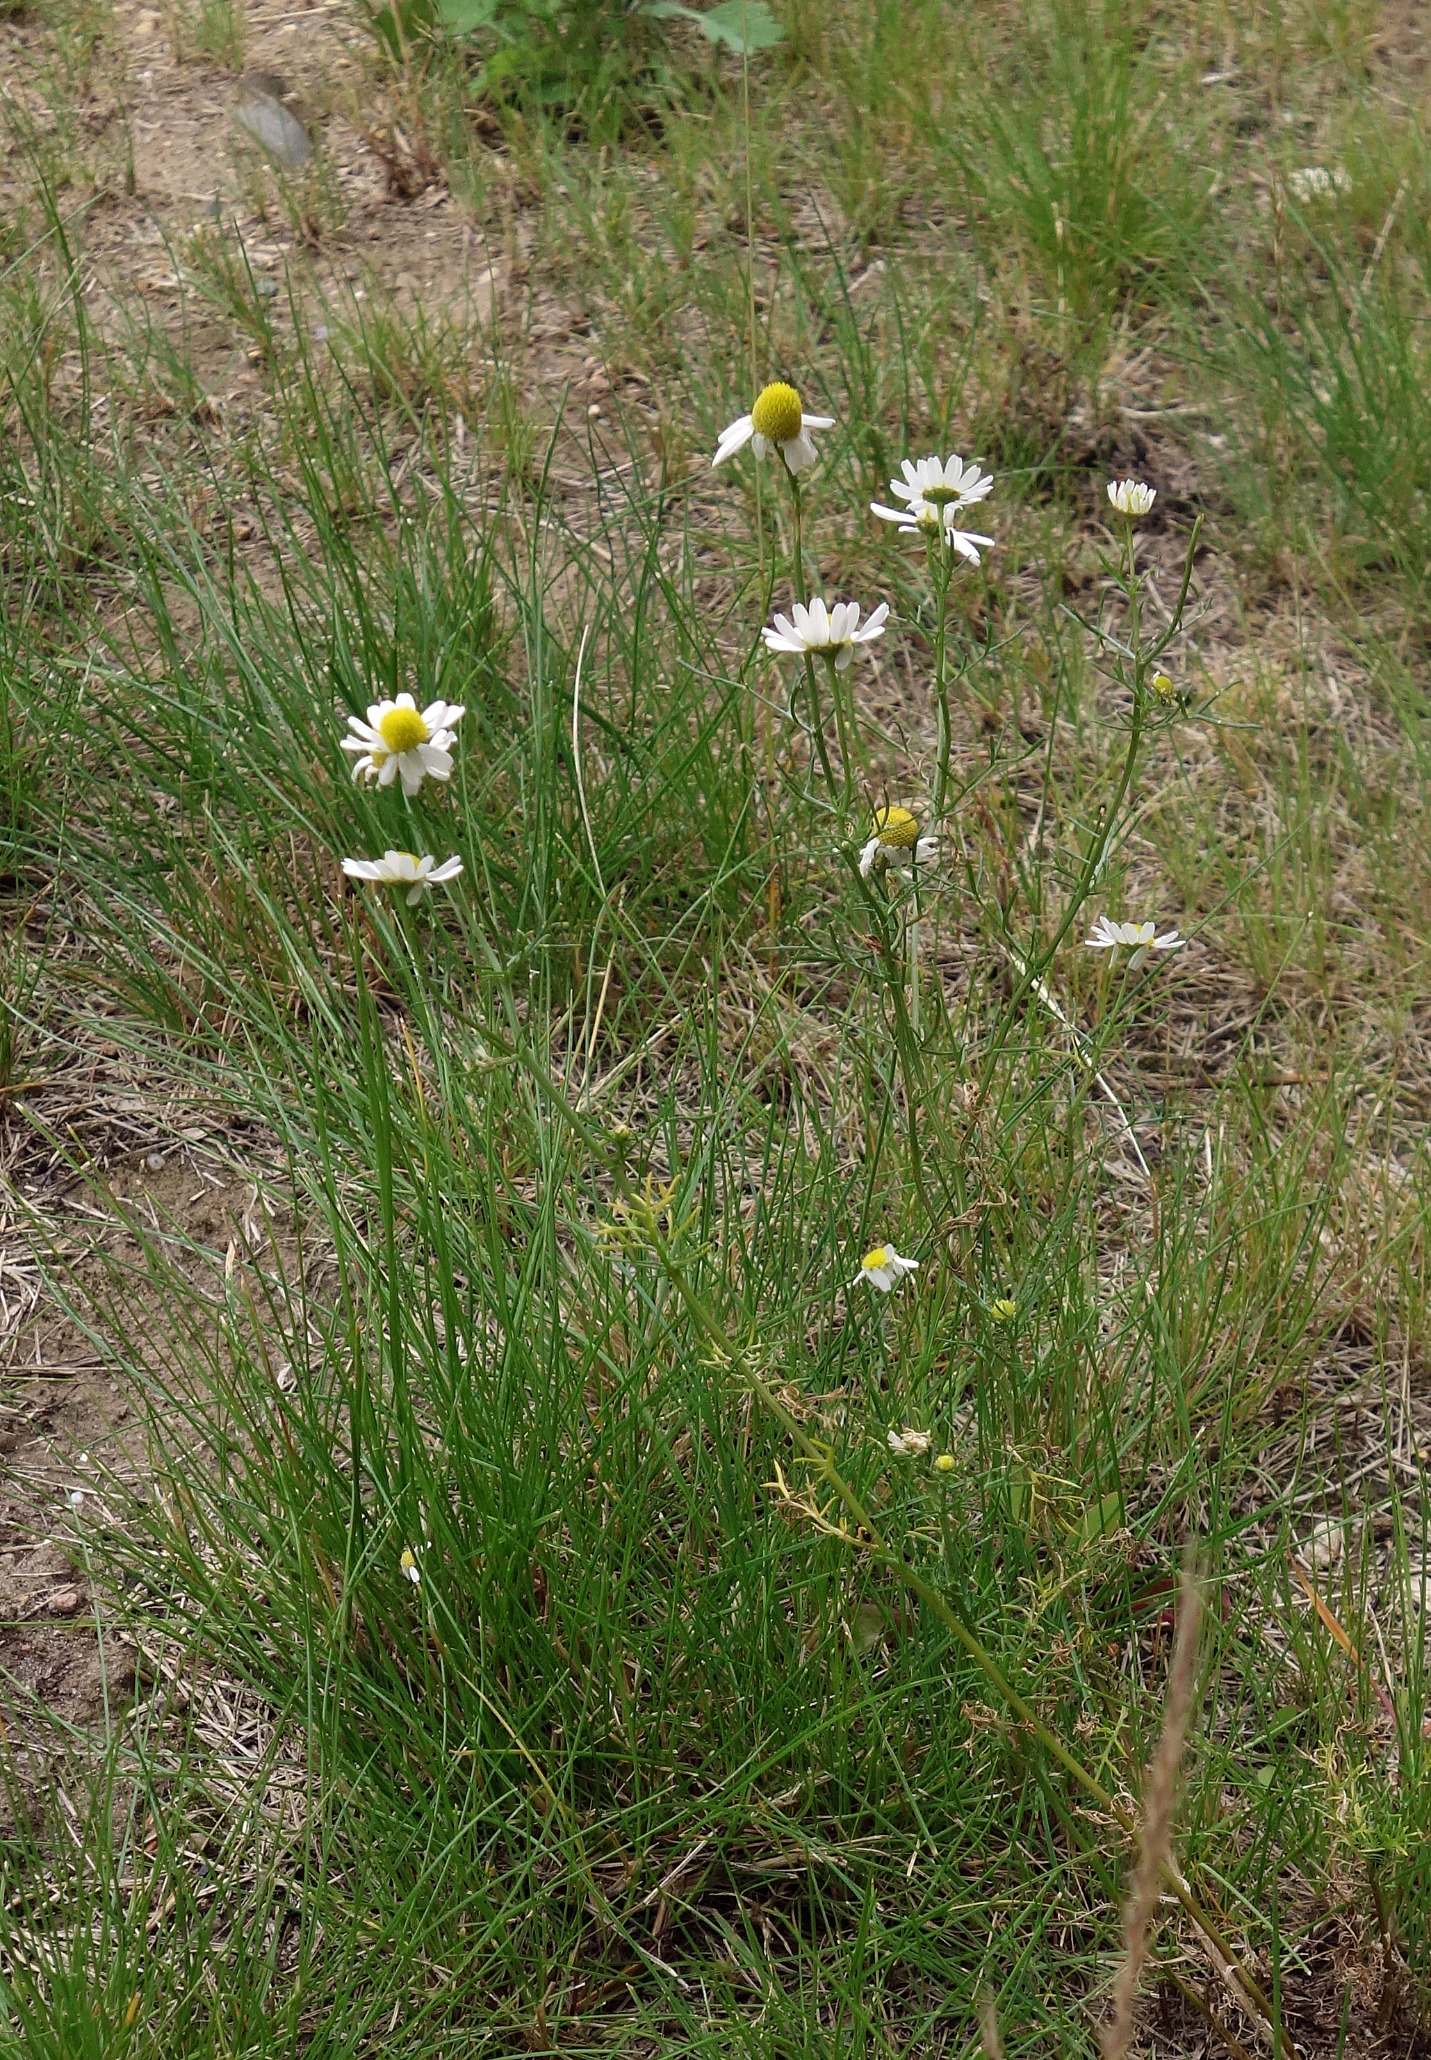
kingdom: Plantae
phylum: Tracheophyta
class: Magnoliopsida
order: Asterales
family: Asteraceae
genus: Matricaria
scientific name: Matricaria chamomilla
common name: Vellugtende kamille
